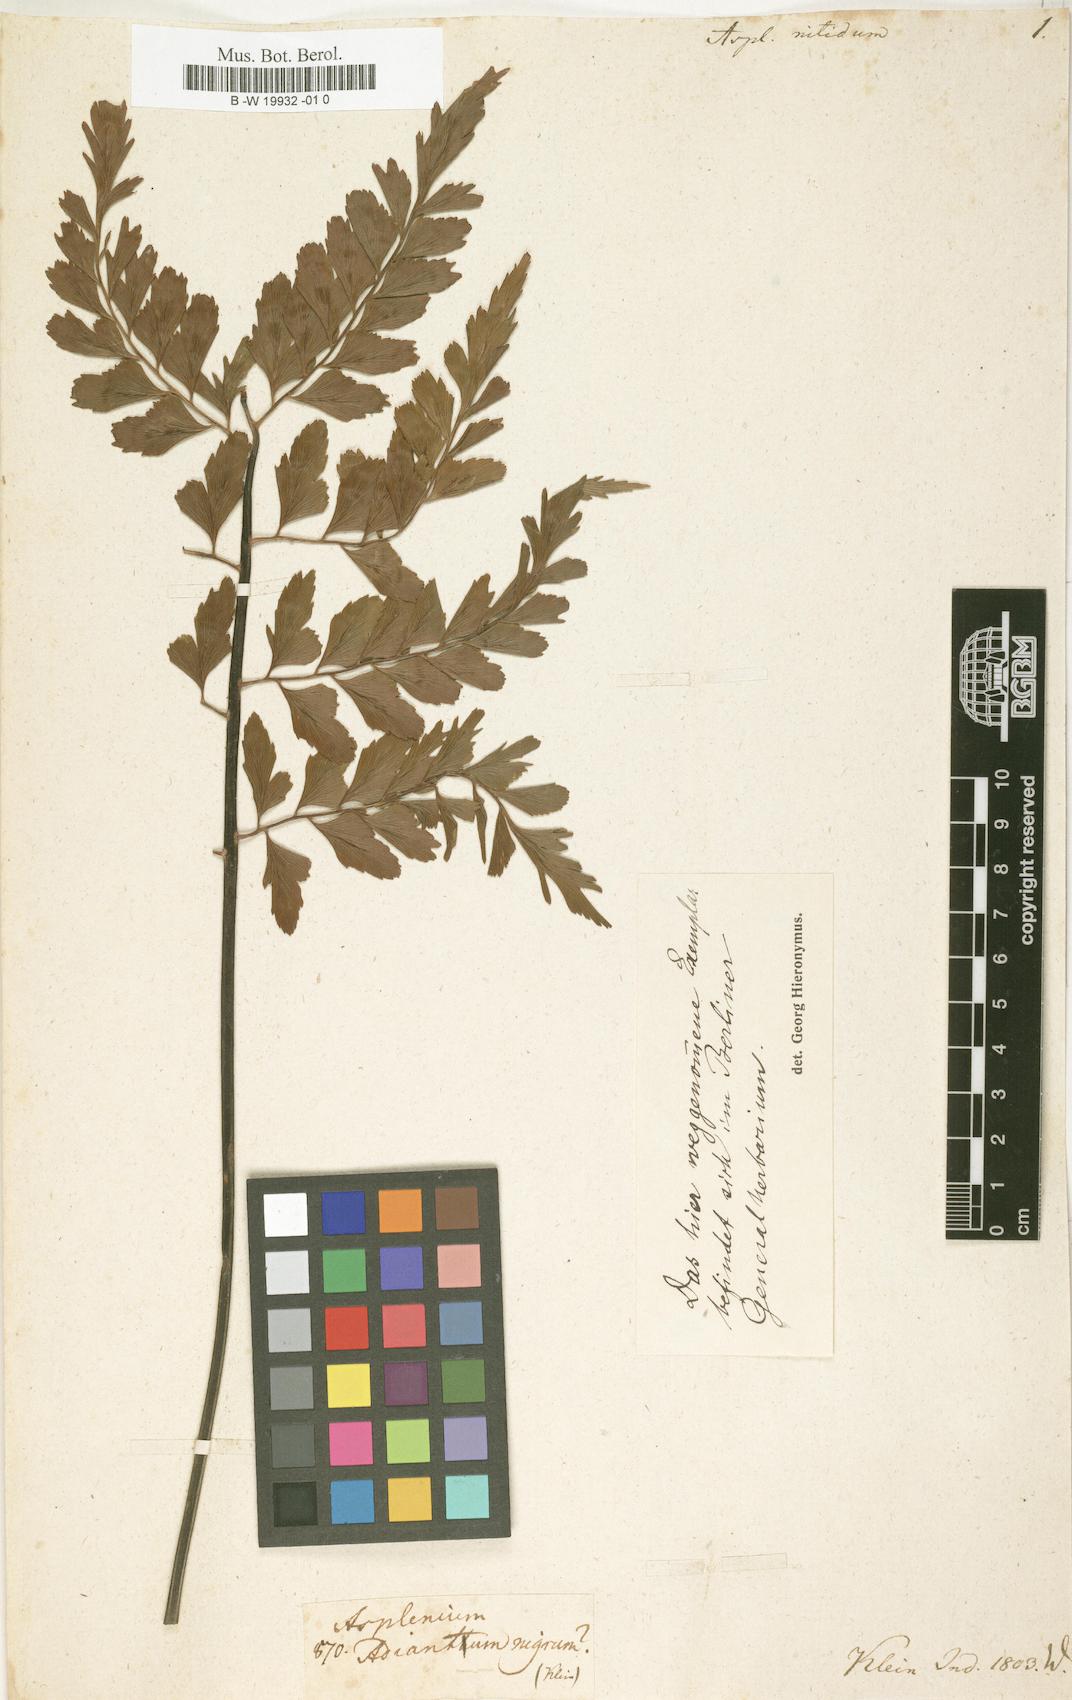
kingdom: Plantae
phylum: Tracheophyta
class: Polypodiopsida
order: Polypodiales
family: Aspleniaceae
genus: Asplenium
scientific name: Asplenium nitidum
